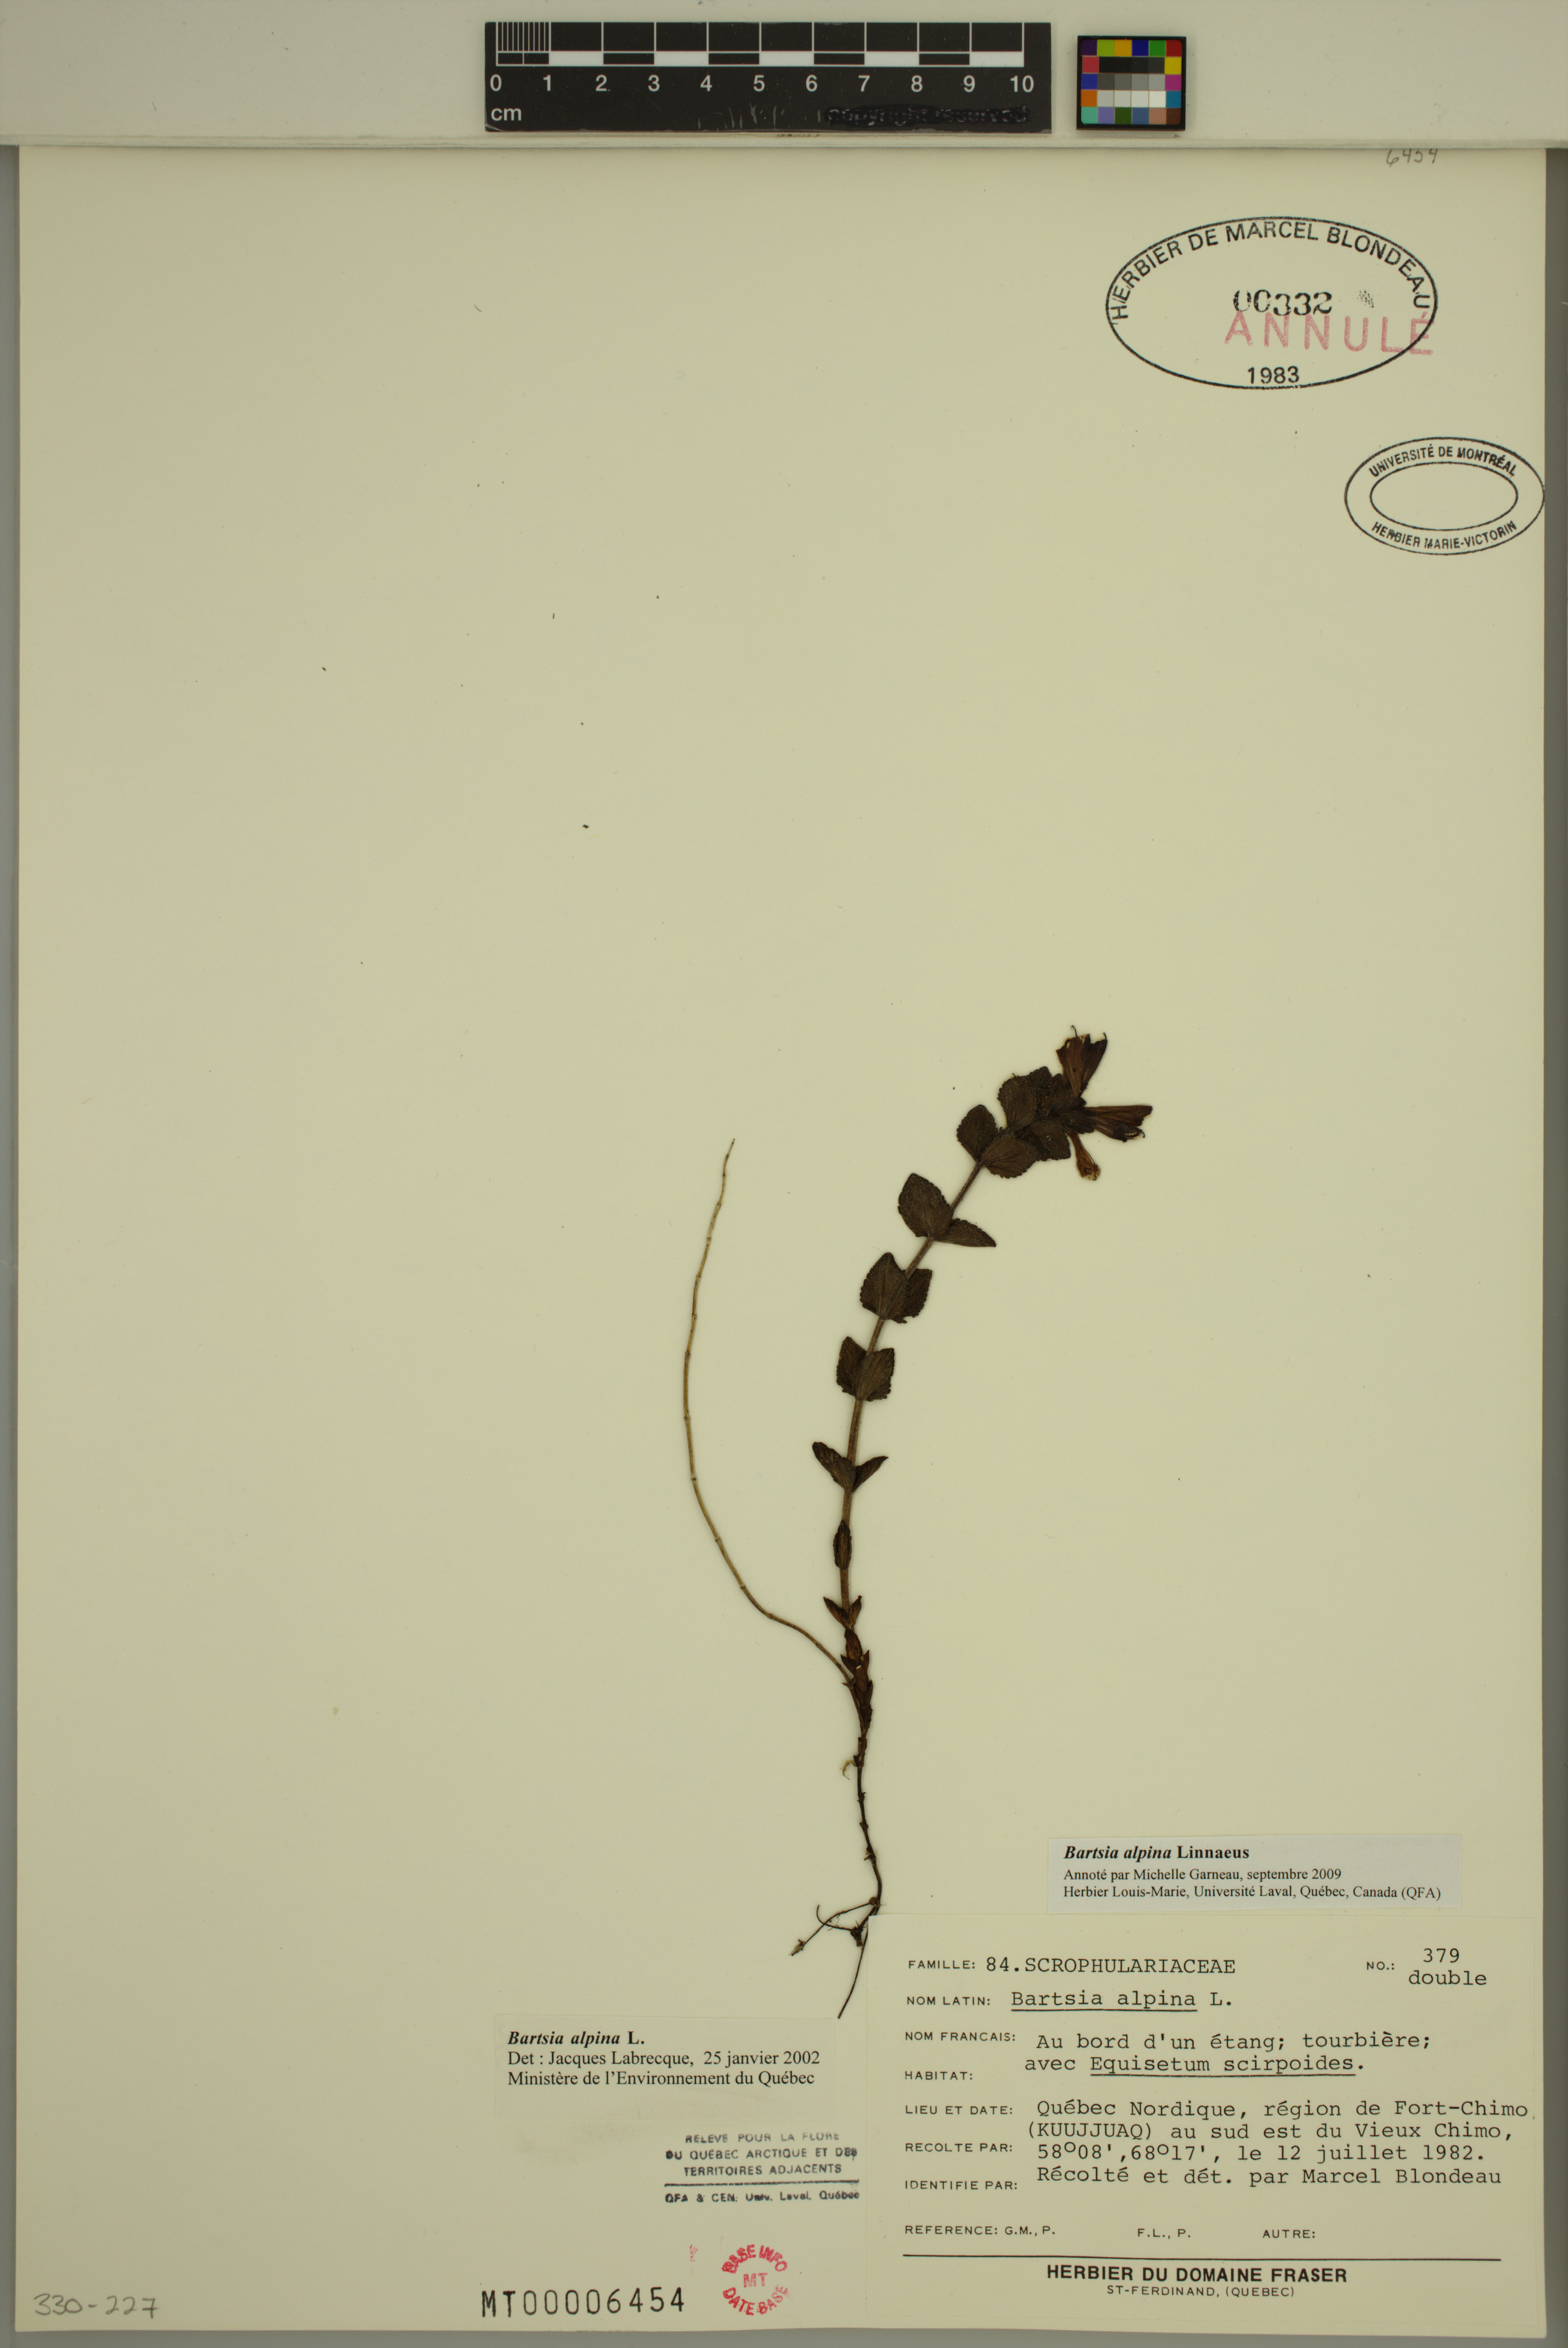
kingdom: Plantae
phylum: Tracheophyta
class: Magnoliopsida
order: Lamiales
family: Orobanchaceae
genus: Bartsia
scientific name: Bartsia alpina
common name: Alpine bartsia
